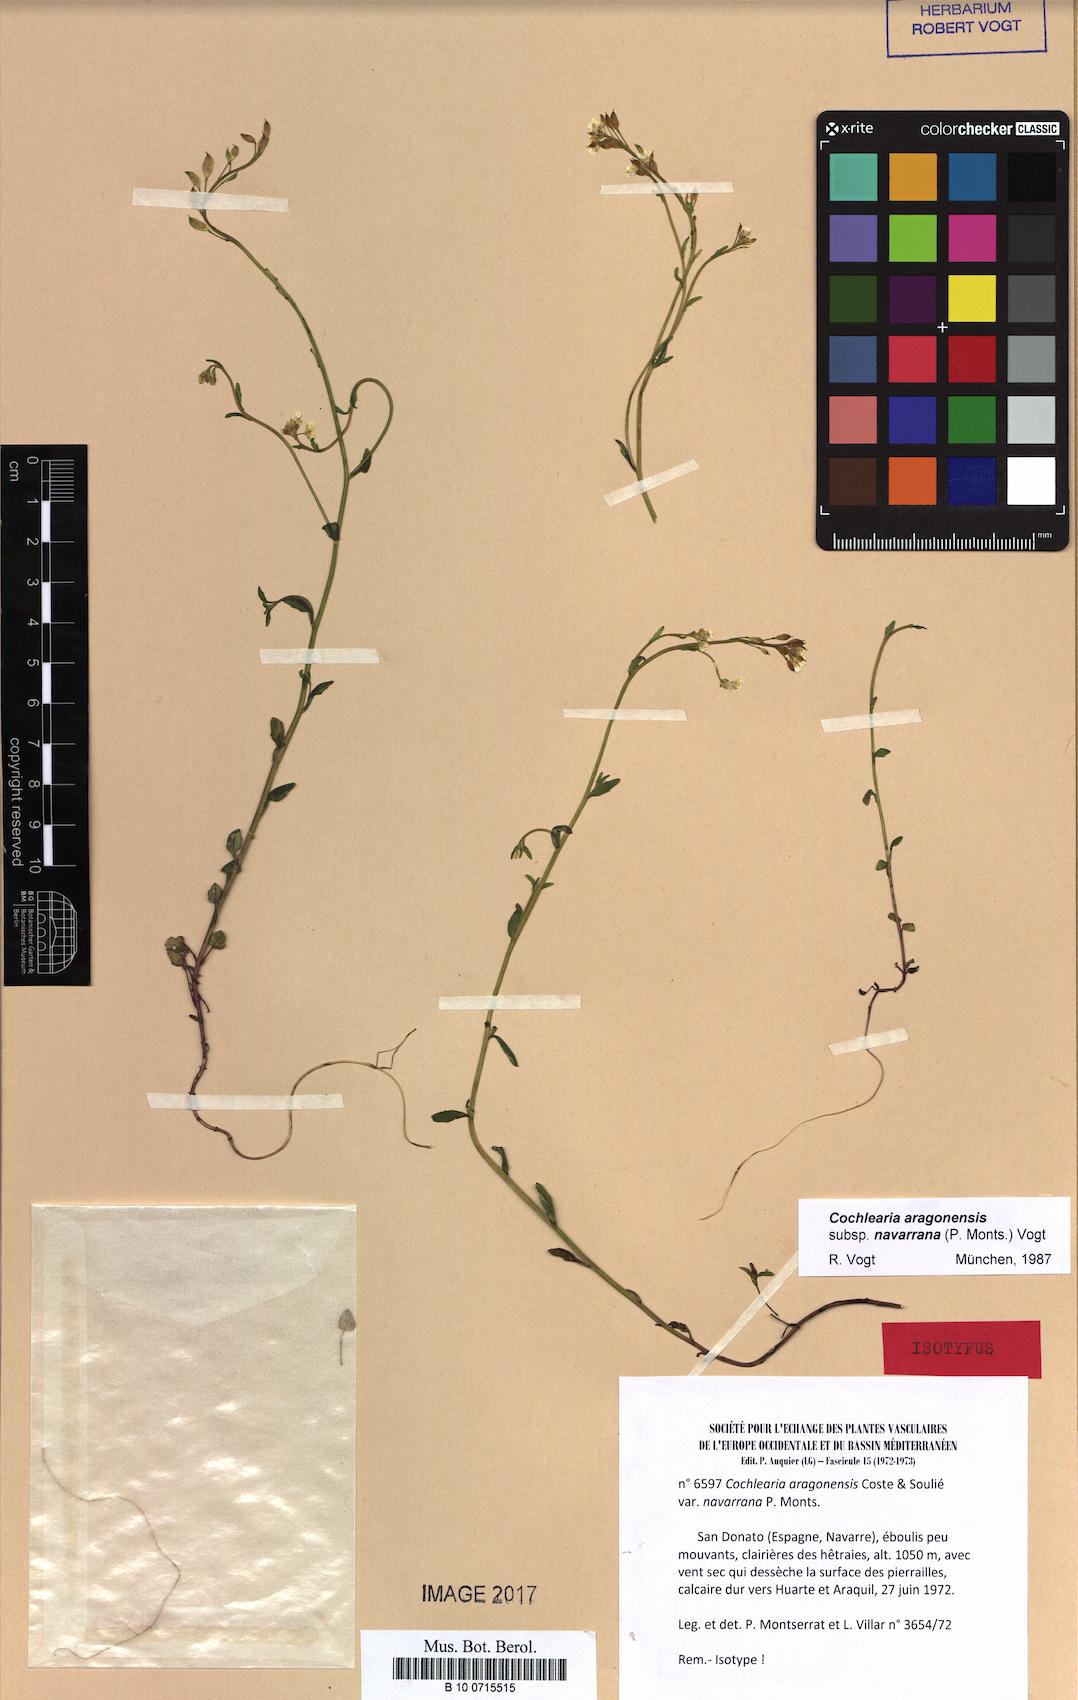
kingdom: Plantae
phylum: Tracheophyta
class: Magnoliopsida
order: Brassicales
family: Brassicaceae
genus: Ionopsidium
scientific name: Ionopsidium aragonensis
